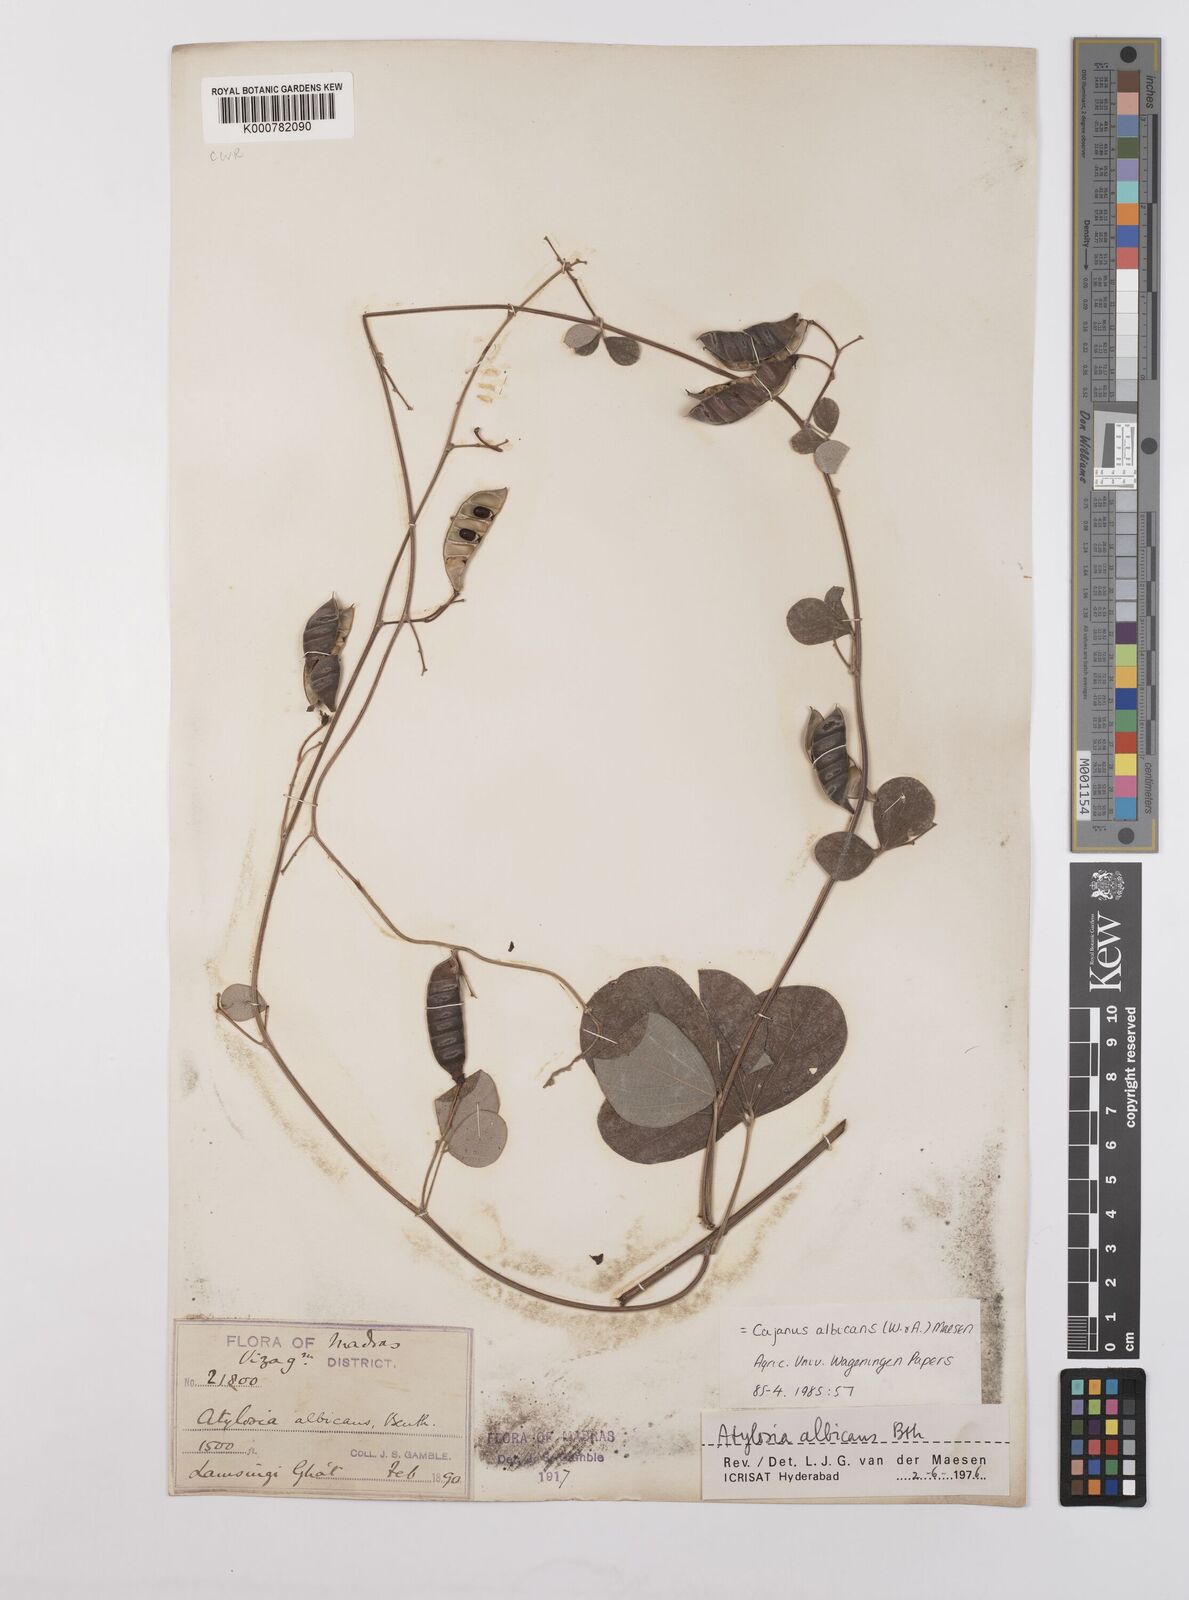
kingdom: Plantae
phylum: Tracheophyta
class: Magnoliopsida
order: Fabales
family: Fabaceae
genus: Cajanus
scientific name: Cajanus albicans
